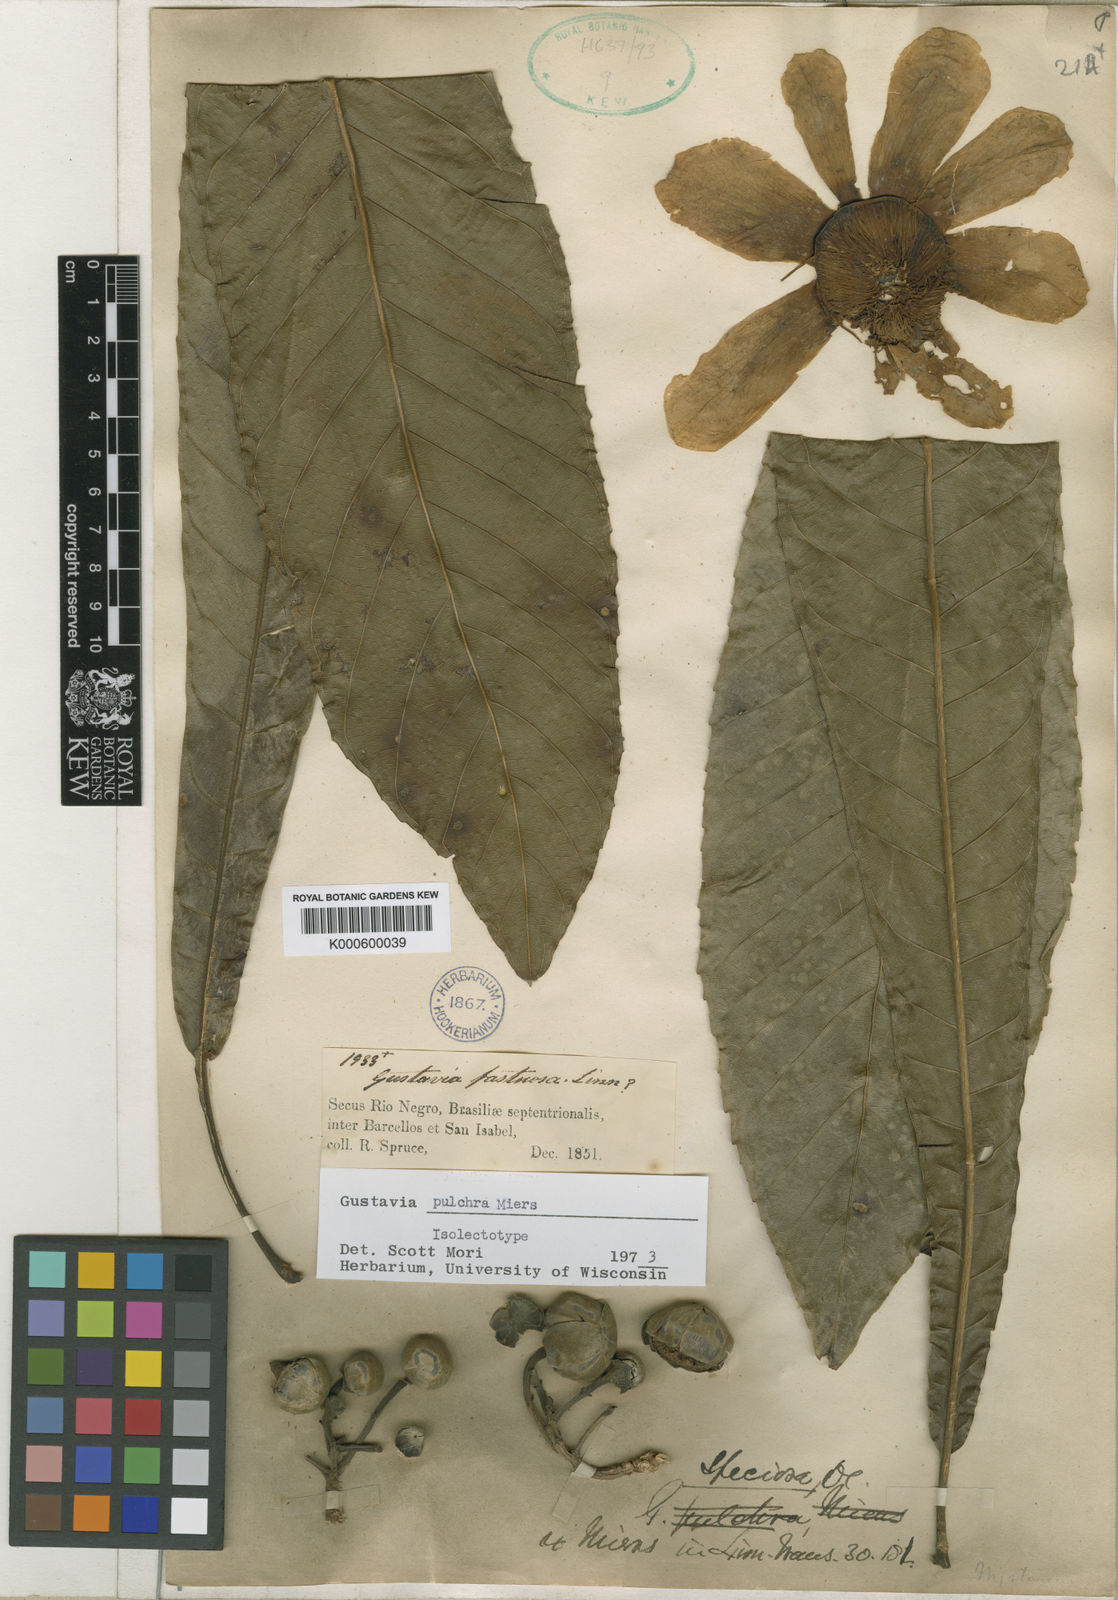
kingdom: Plantae
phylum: Tracheophyta
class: Magnoliopsida
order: Ericales
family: Lecythidaceae
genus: Gustavia
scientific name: Gustavia pulchra
